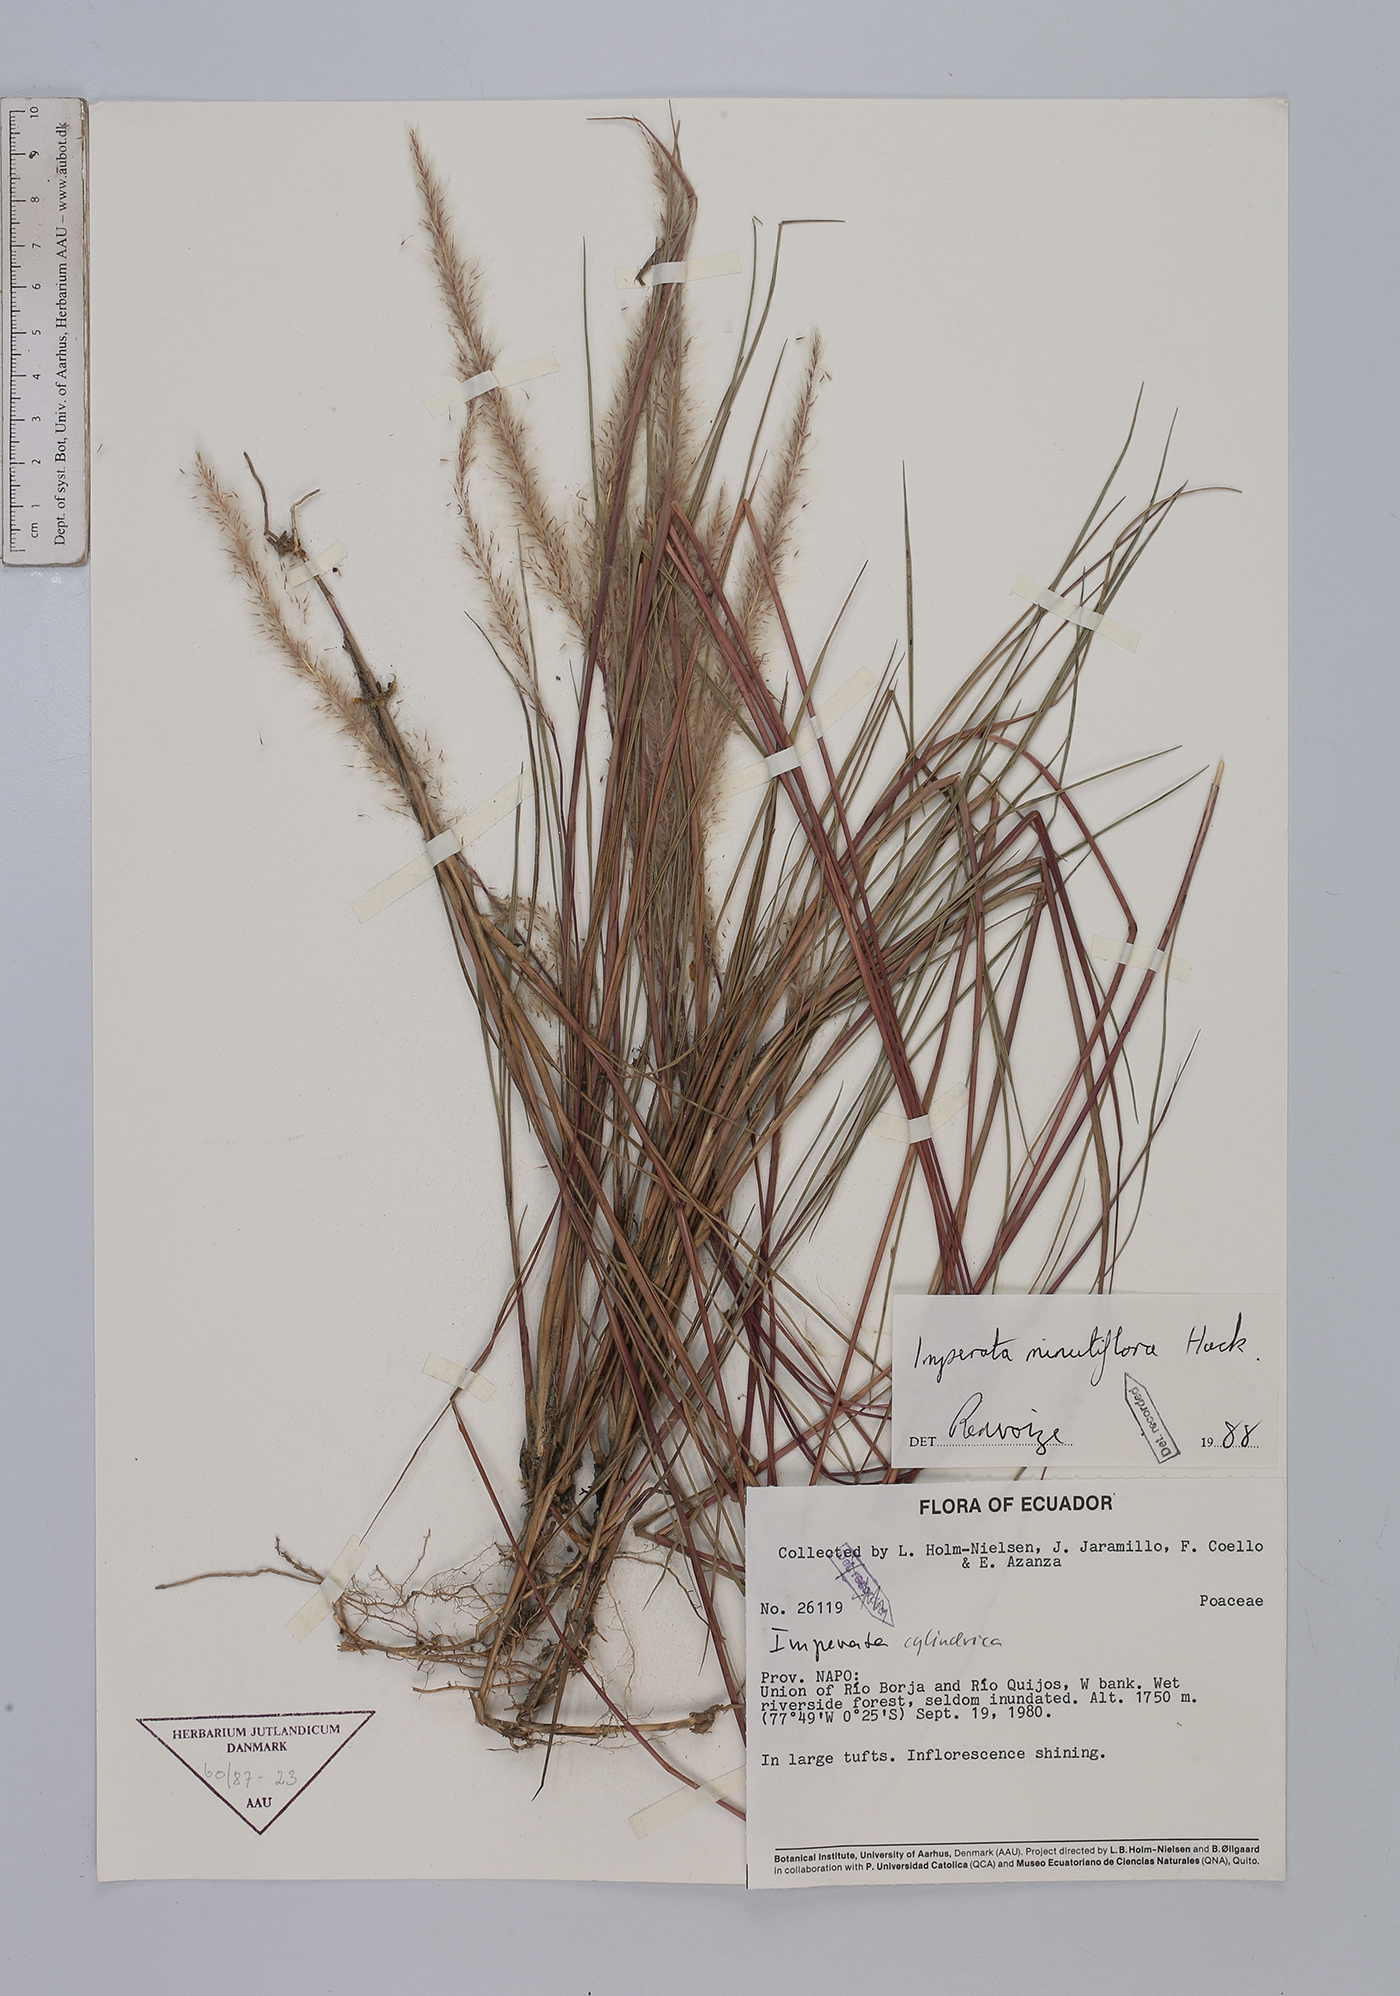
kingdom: Plantae
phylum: Tracheophyta
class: Liliopsida
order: Poales
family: Poaceae
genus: Imperata
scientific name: Imperata minutiflora
